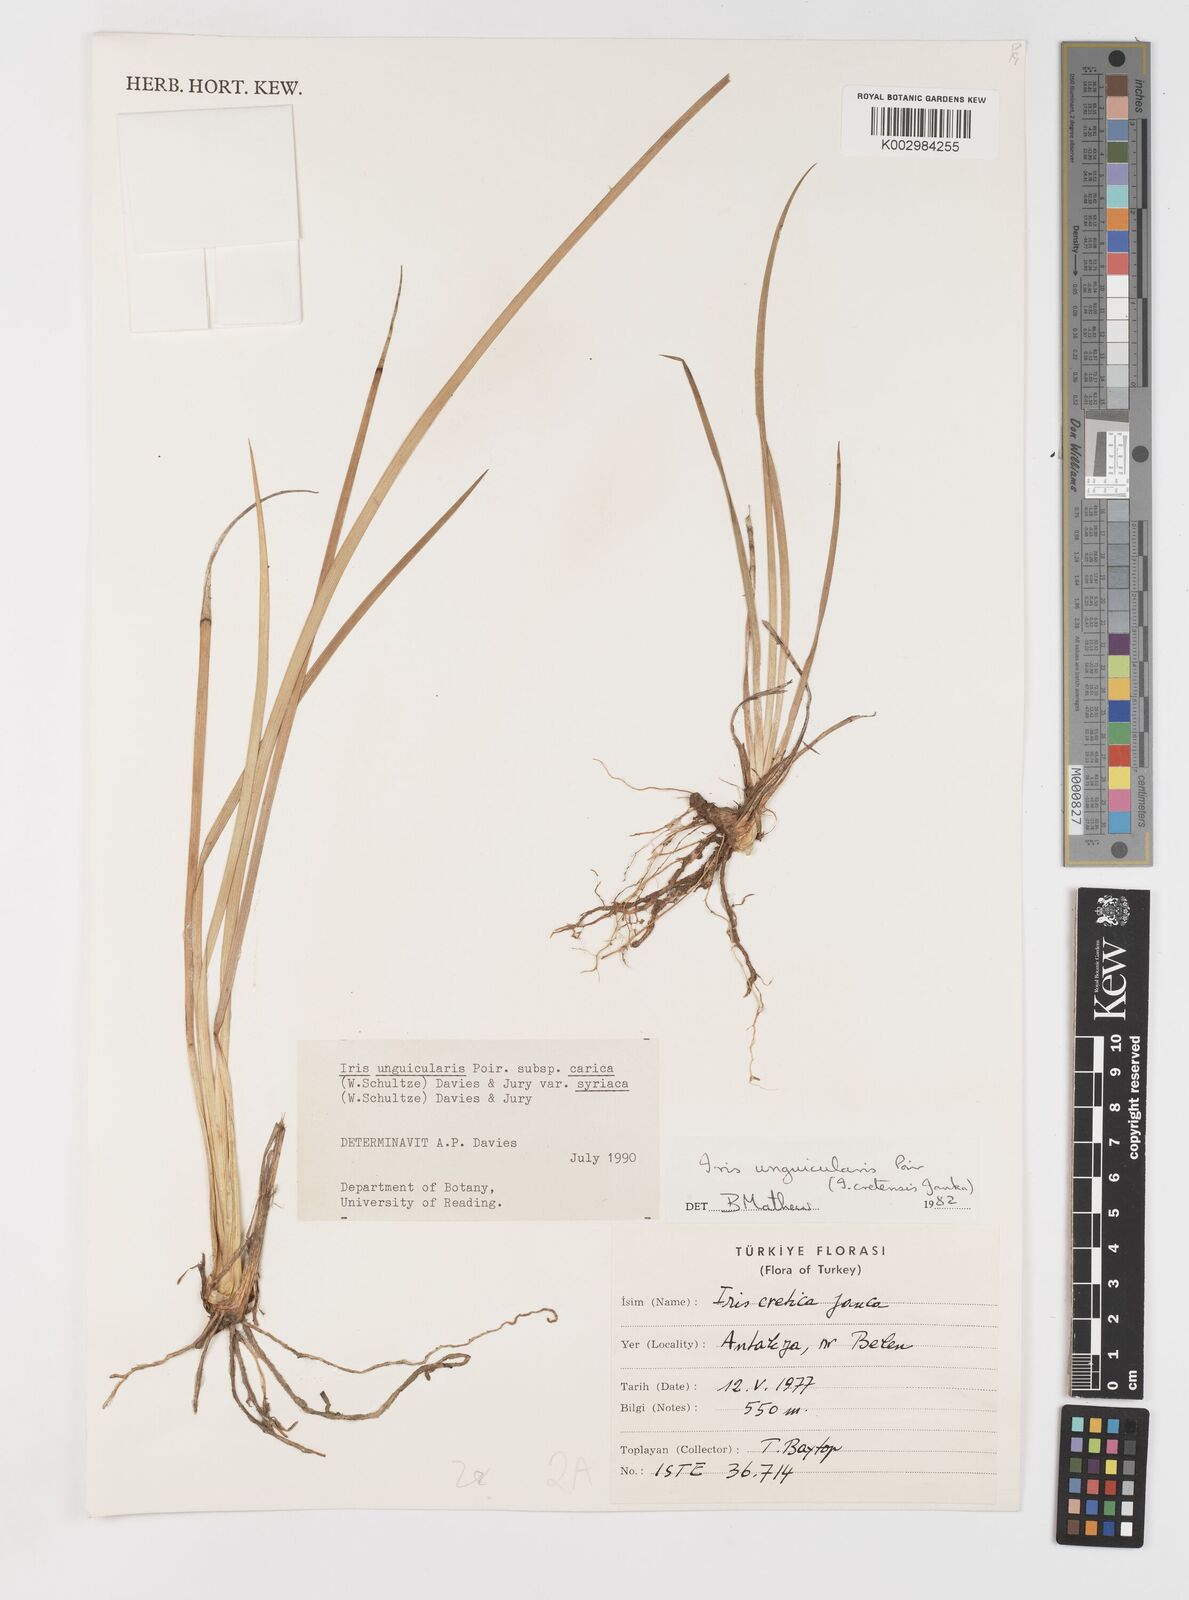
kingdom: Plantae
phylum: Tracheophyta
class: Liliopsida
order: Asparagales
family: Iridaceae
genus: Iris
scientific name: Iris unguicularis
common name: Algerian iris
